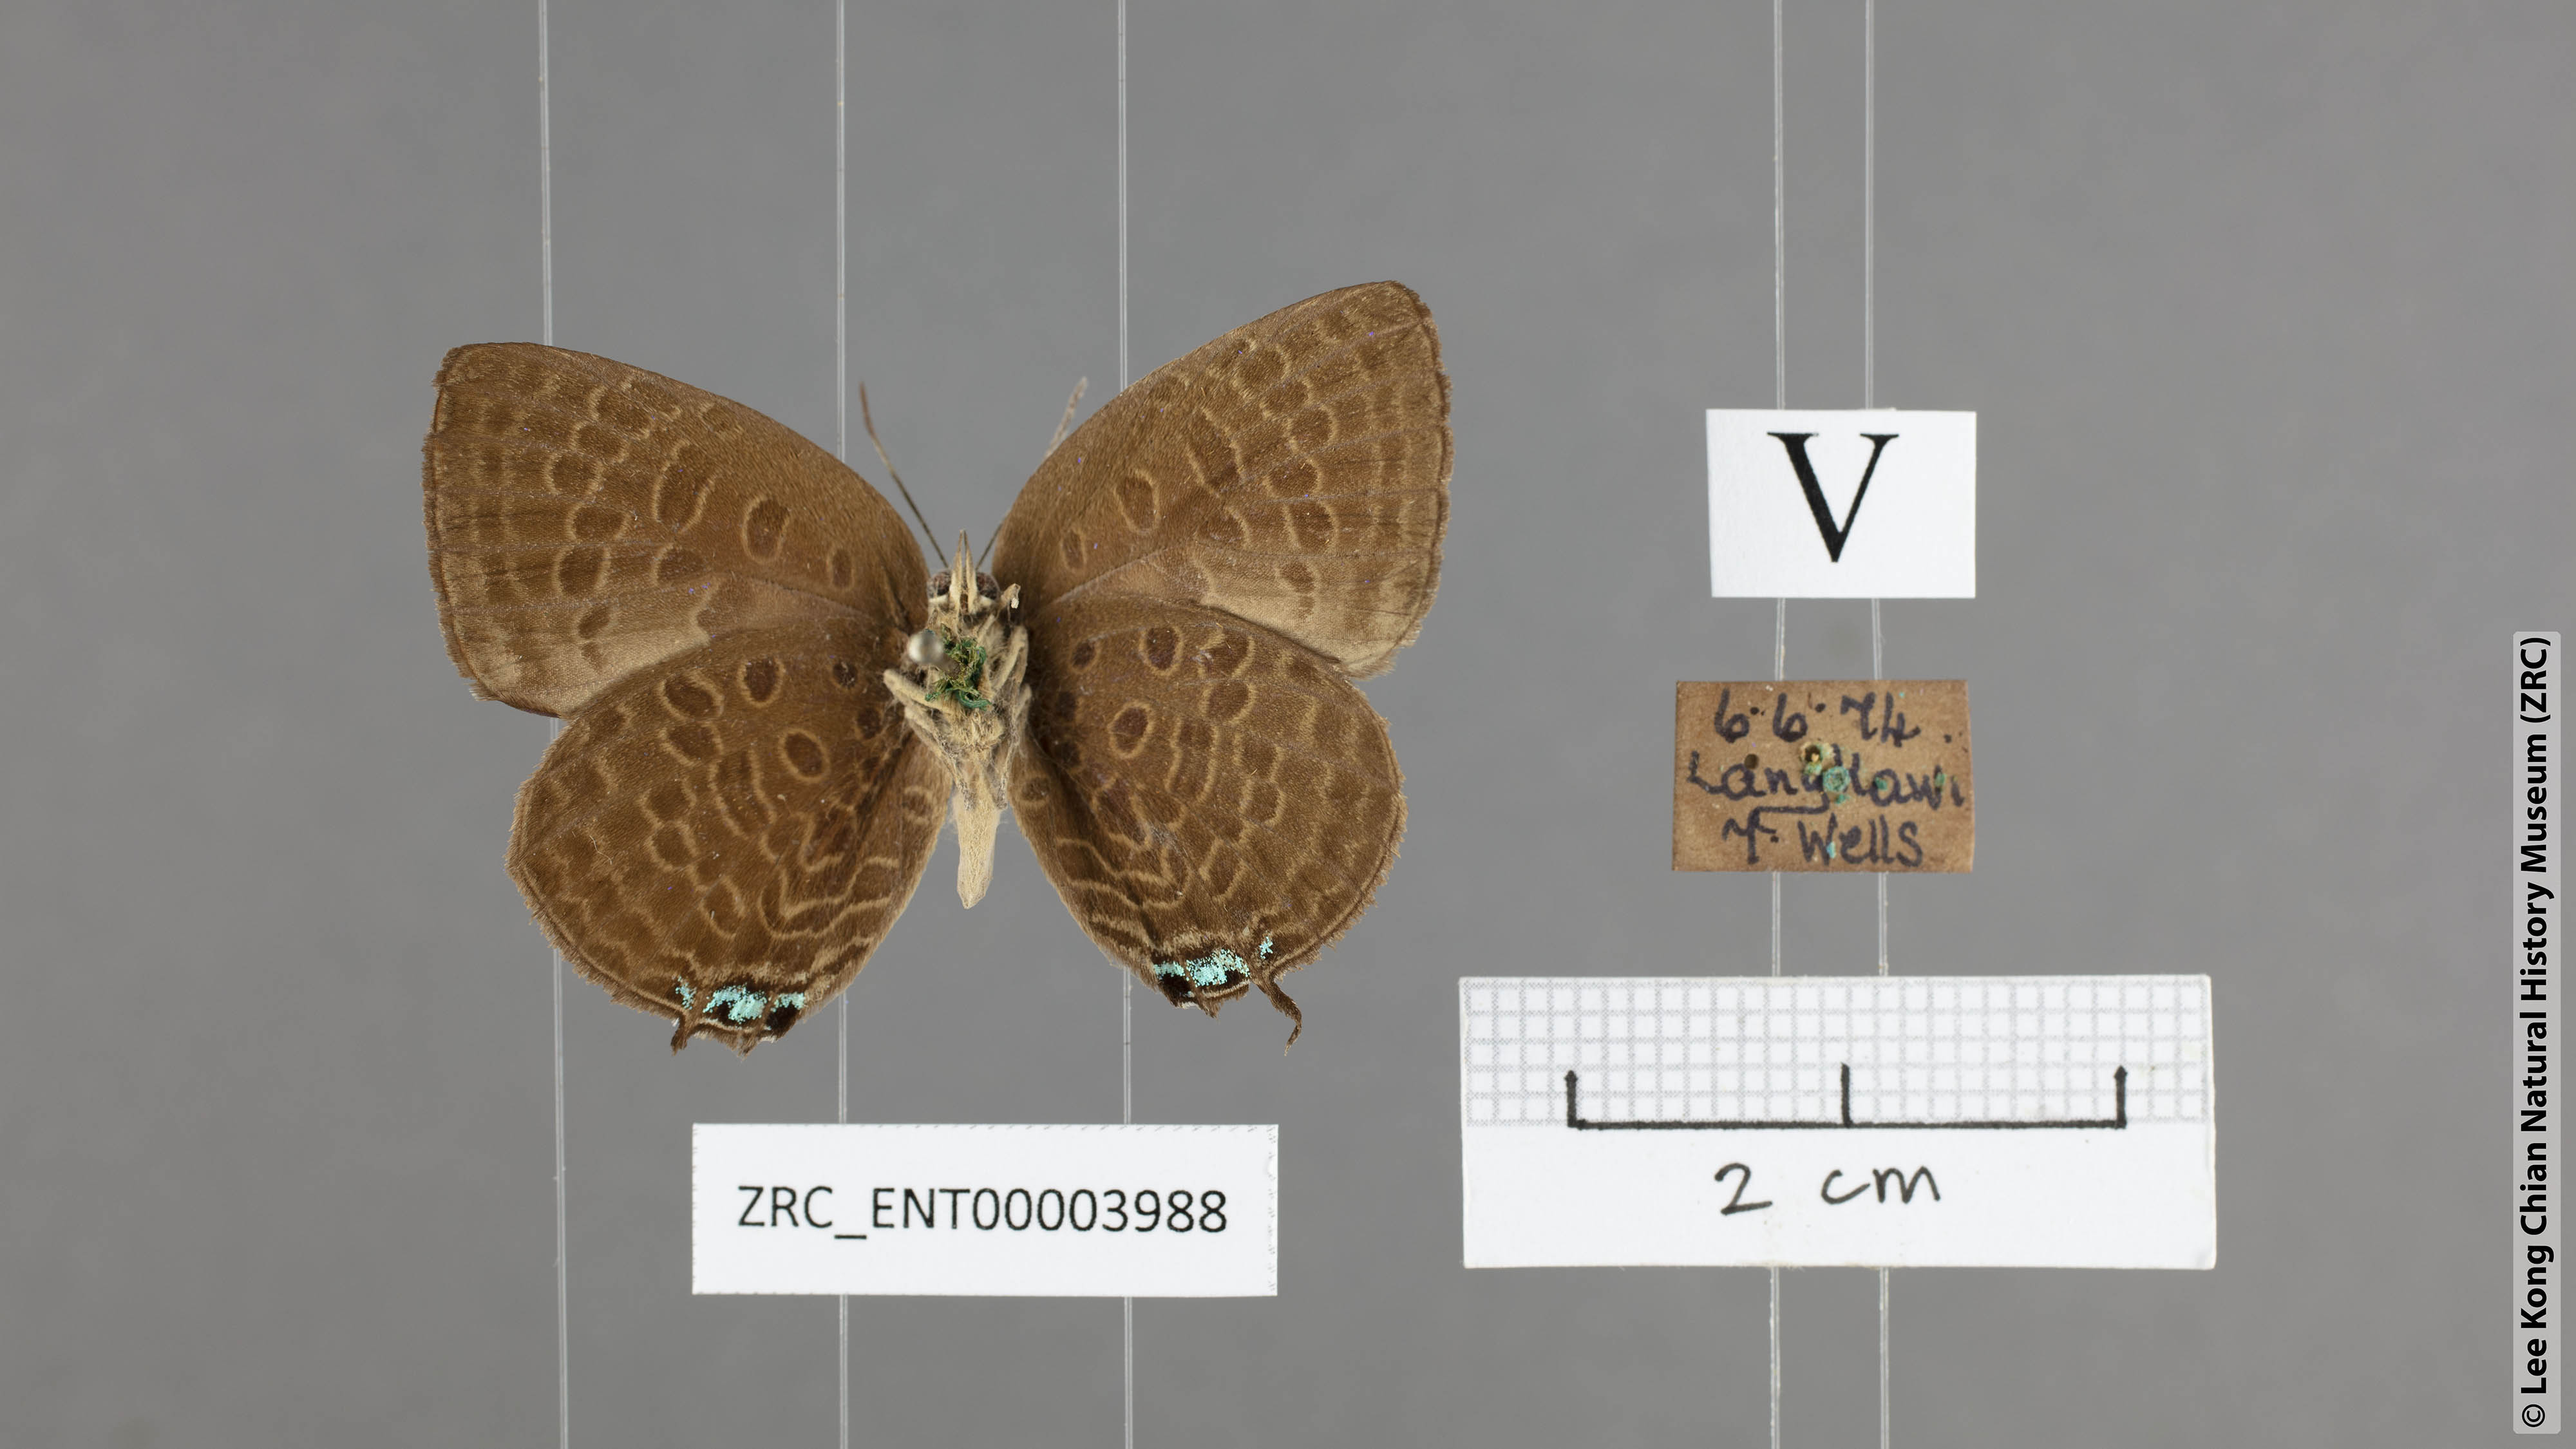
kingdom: Animalia
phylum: Arthropoda
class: Insecta
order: Lepidoptera
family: Lycaenidae
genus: Arhopala
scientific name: Arhopala atosia
